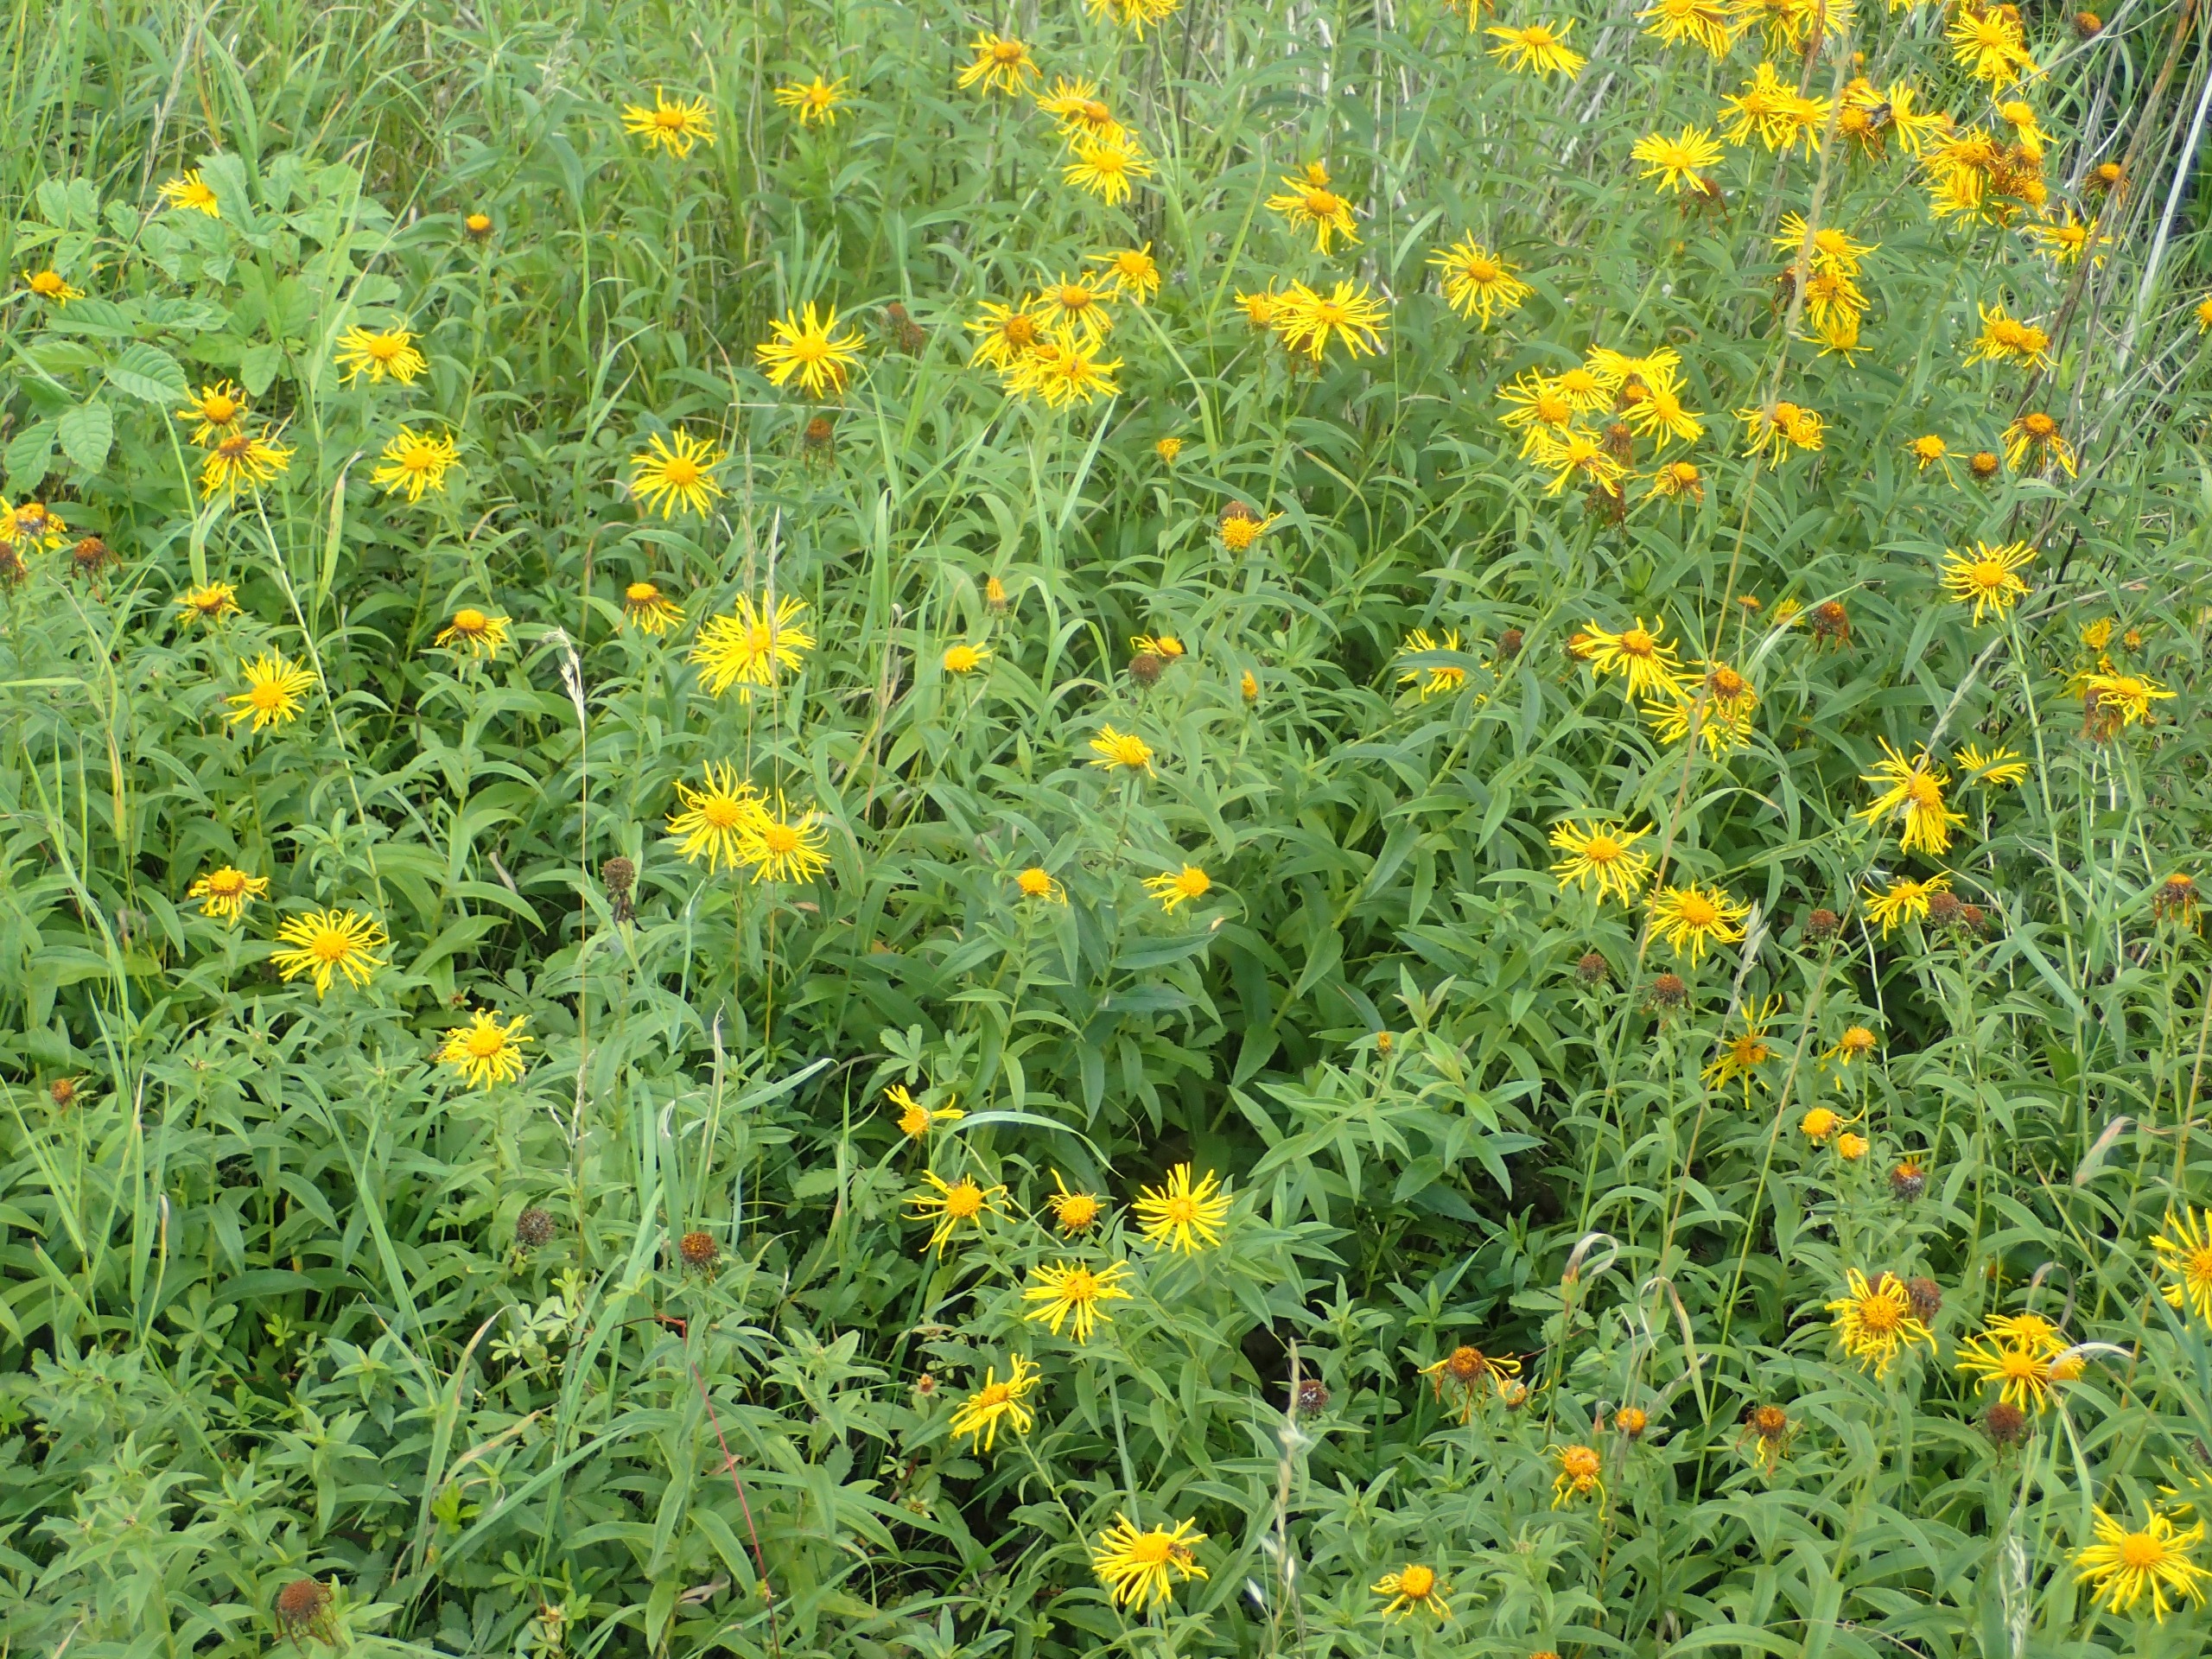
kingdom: Plantae
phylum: Tracheophyta
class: Magnoliopsida
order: Asterales
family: Asteraceae
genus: Pentanema
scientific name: Pentanema salicinum
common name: Pile-alant
